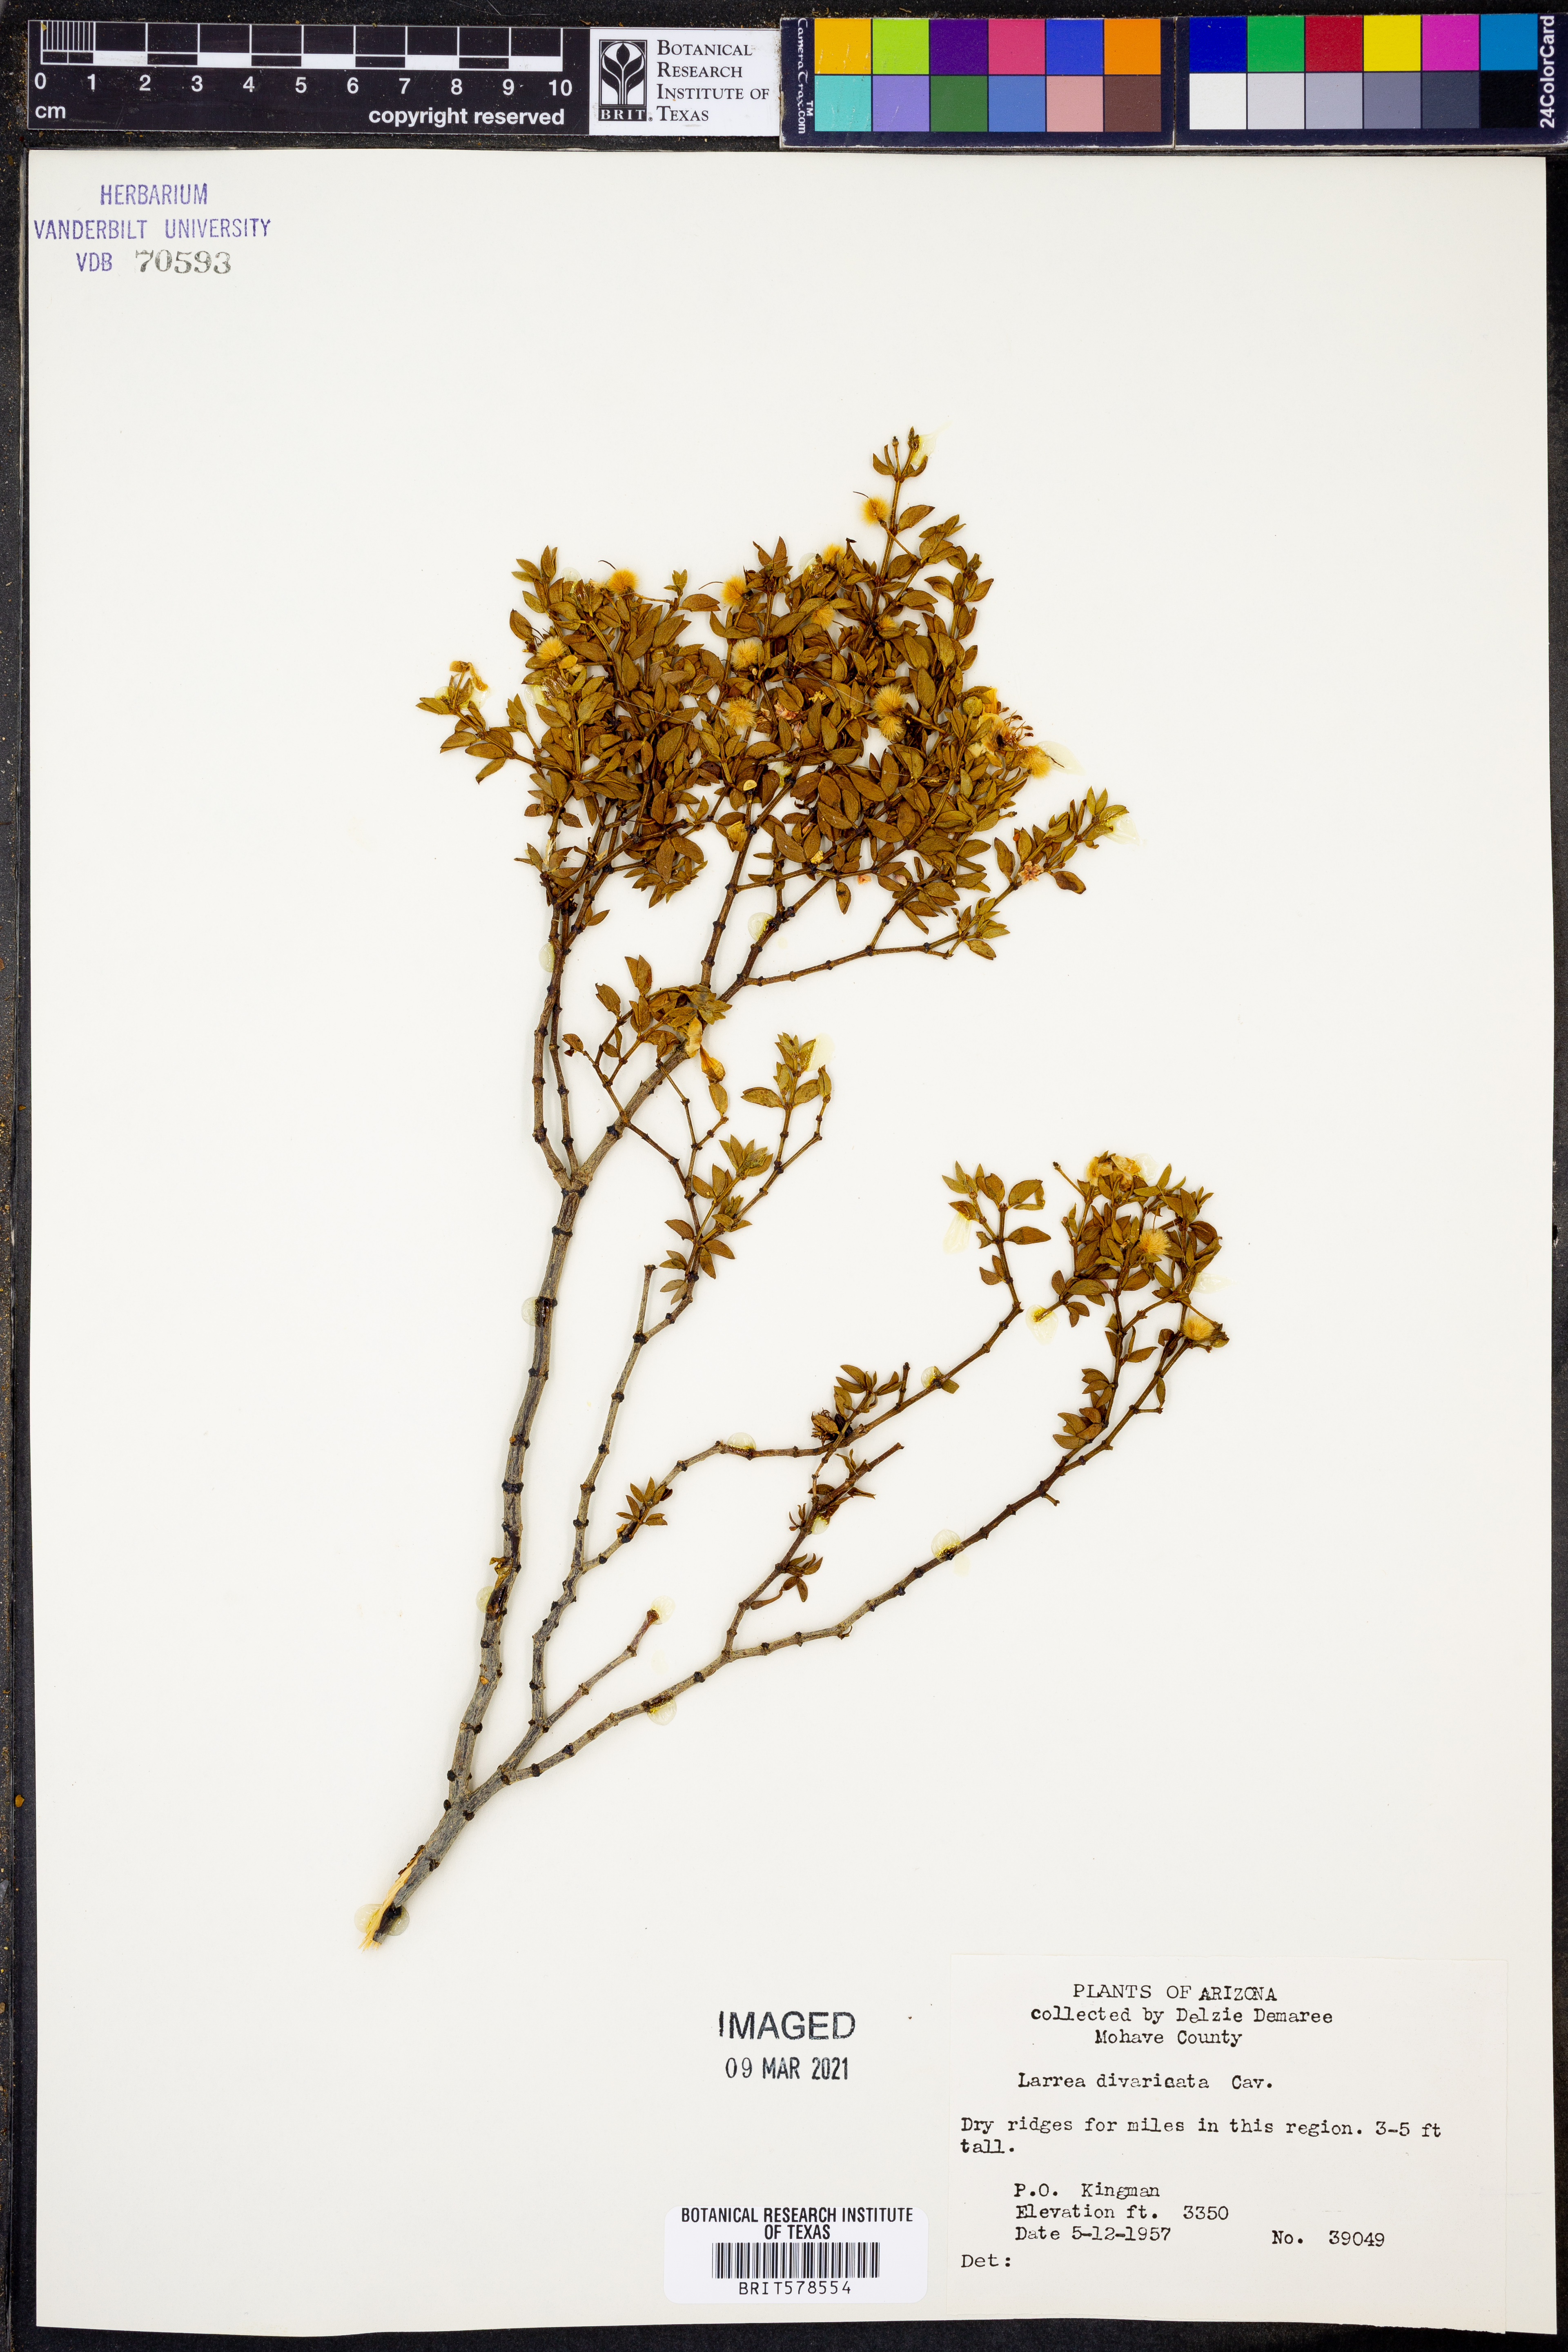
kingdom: Plantae
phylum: Tracheophyta
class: Magnoliopsida
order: Zygophyllales
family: Zygophyllaceae
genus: Larrea
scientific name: Larrea divaricata
